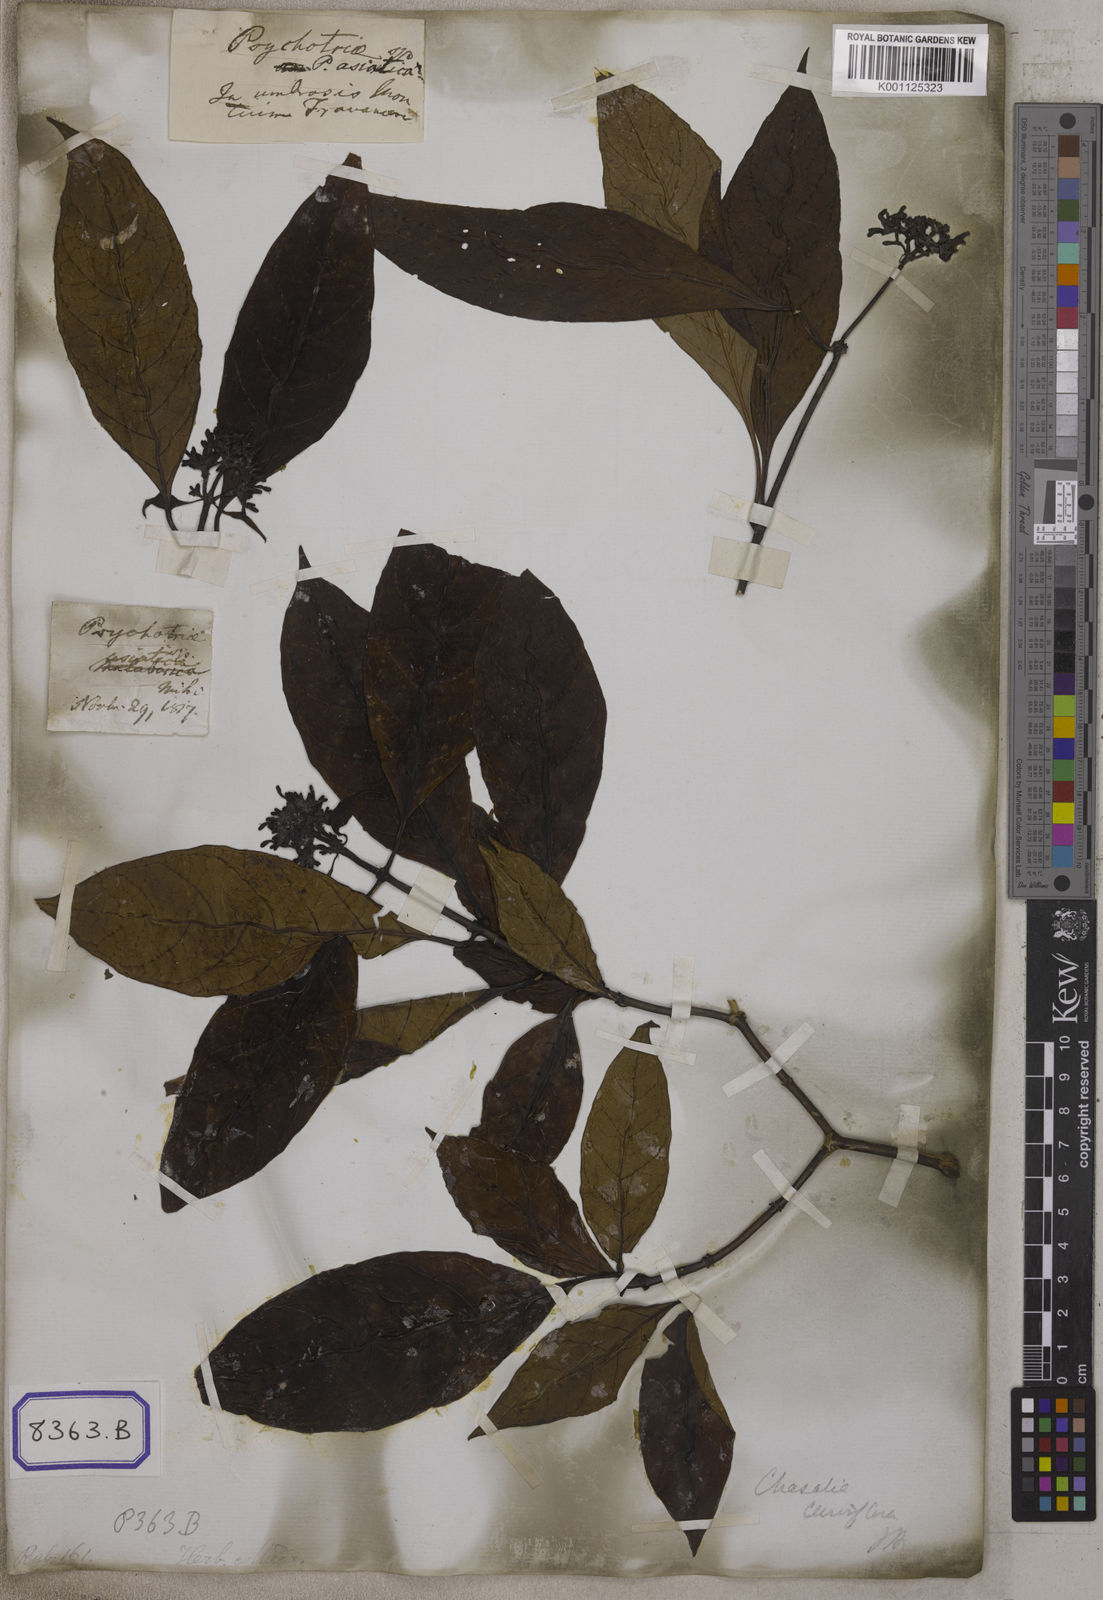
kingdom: Plantae
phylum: Tracheophyta
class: Magnoliopsida
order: Gentianales
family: Rubiaceae
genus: Psychotria
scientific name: Psychotria
